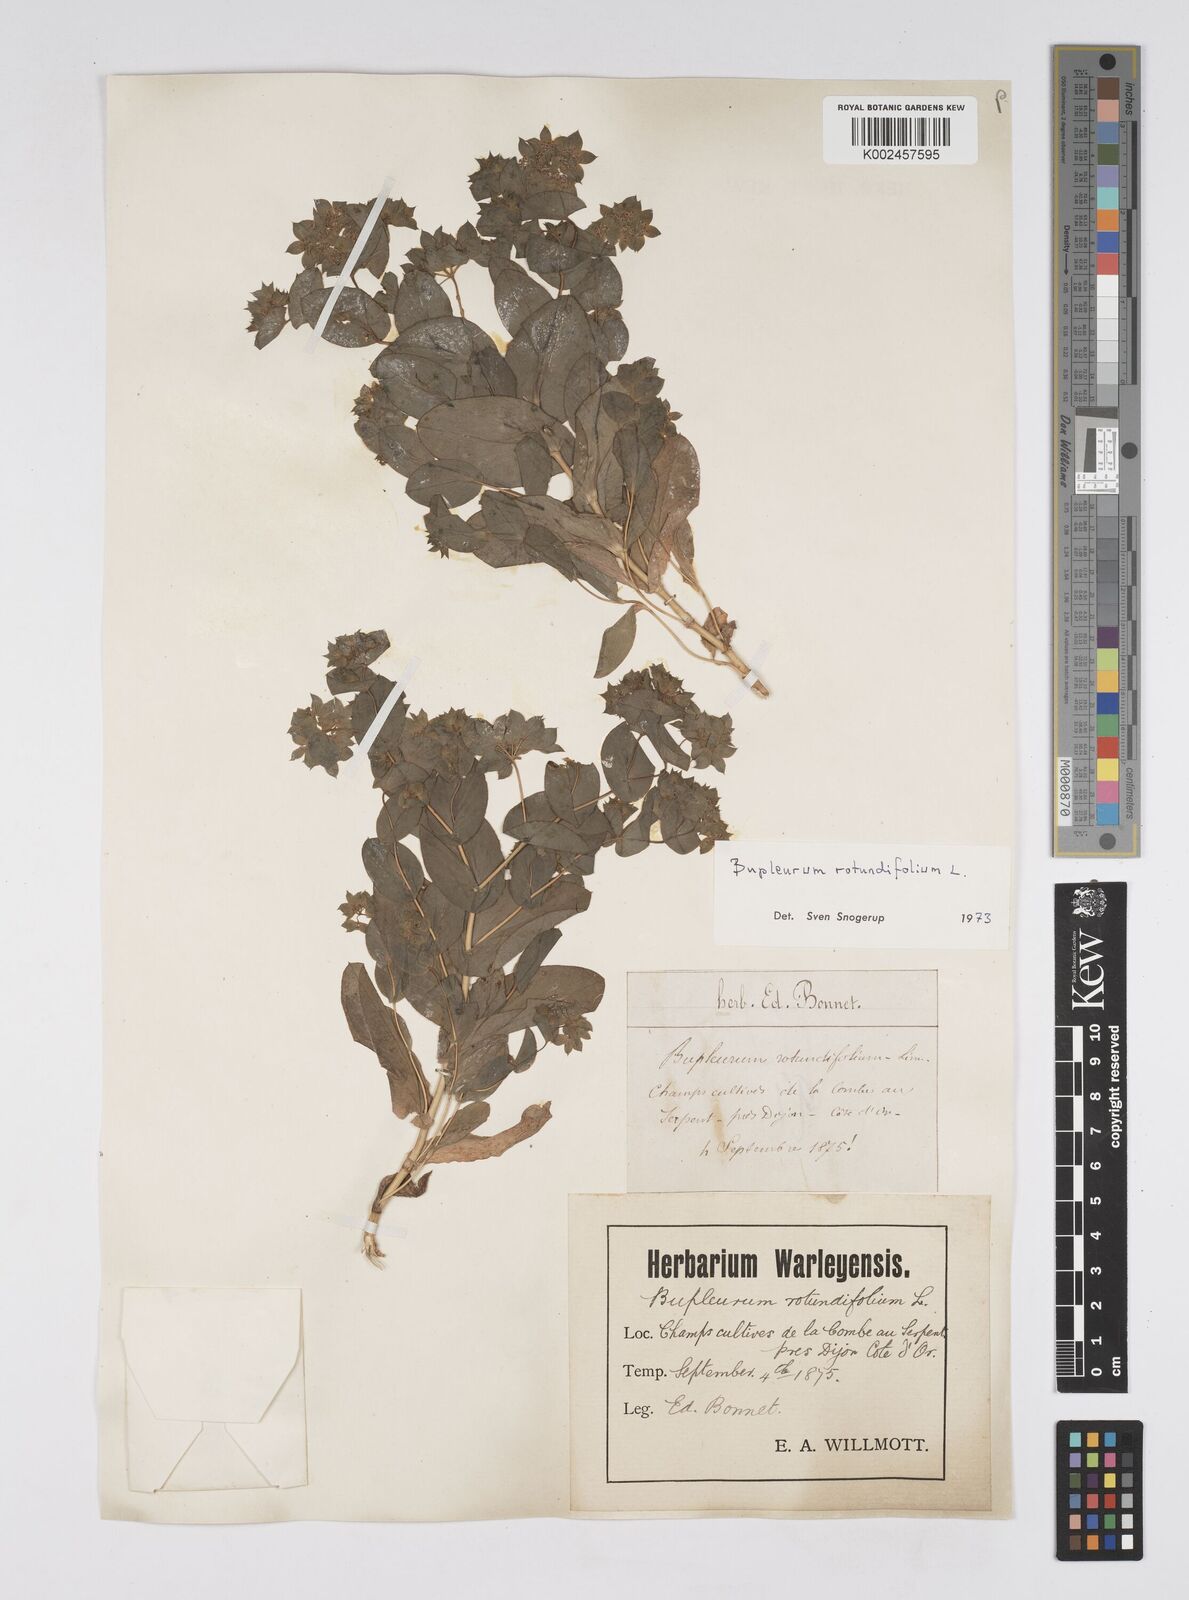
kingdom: Plantae
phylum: Tracheophyta
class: Magnoliopsida
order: Apiales
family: Apiaceae
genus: Bupleurum
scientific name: Bupleurum rotundifolium
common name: Thorow-wax
